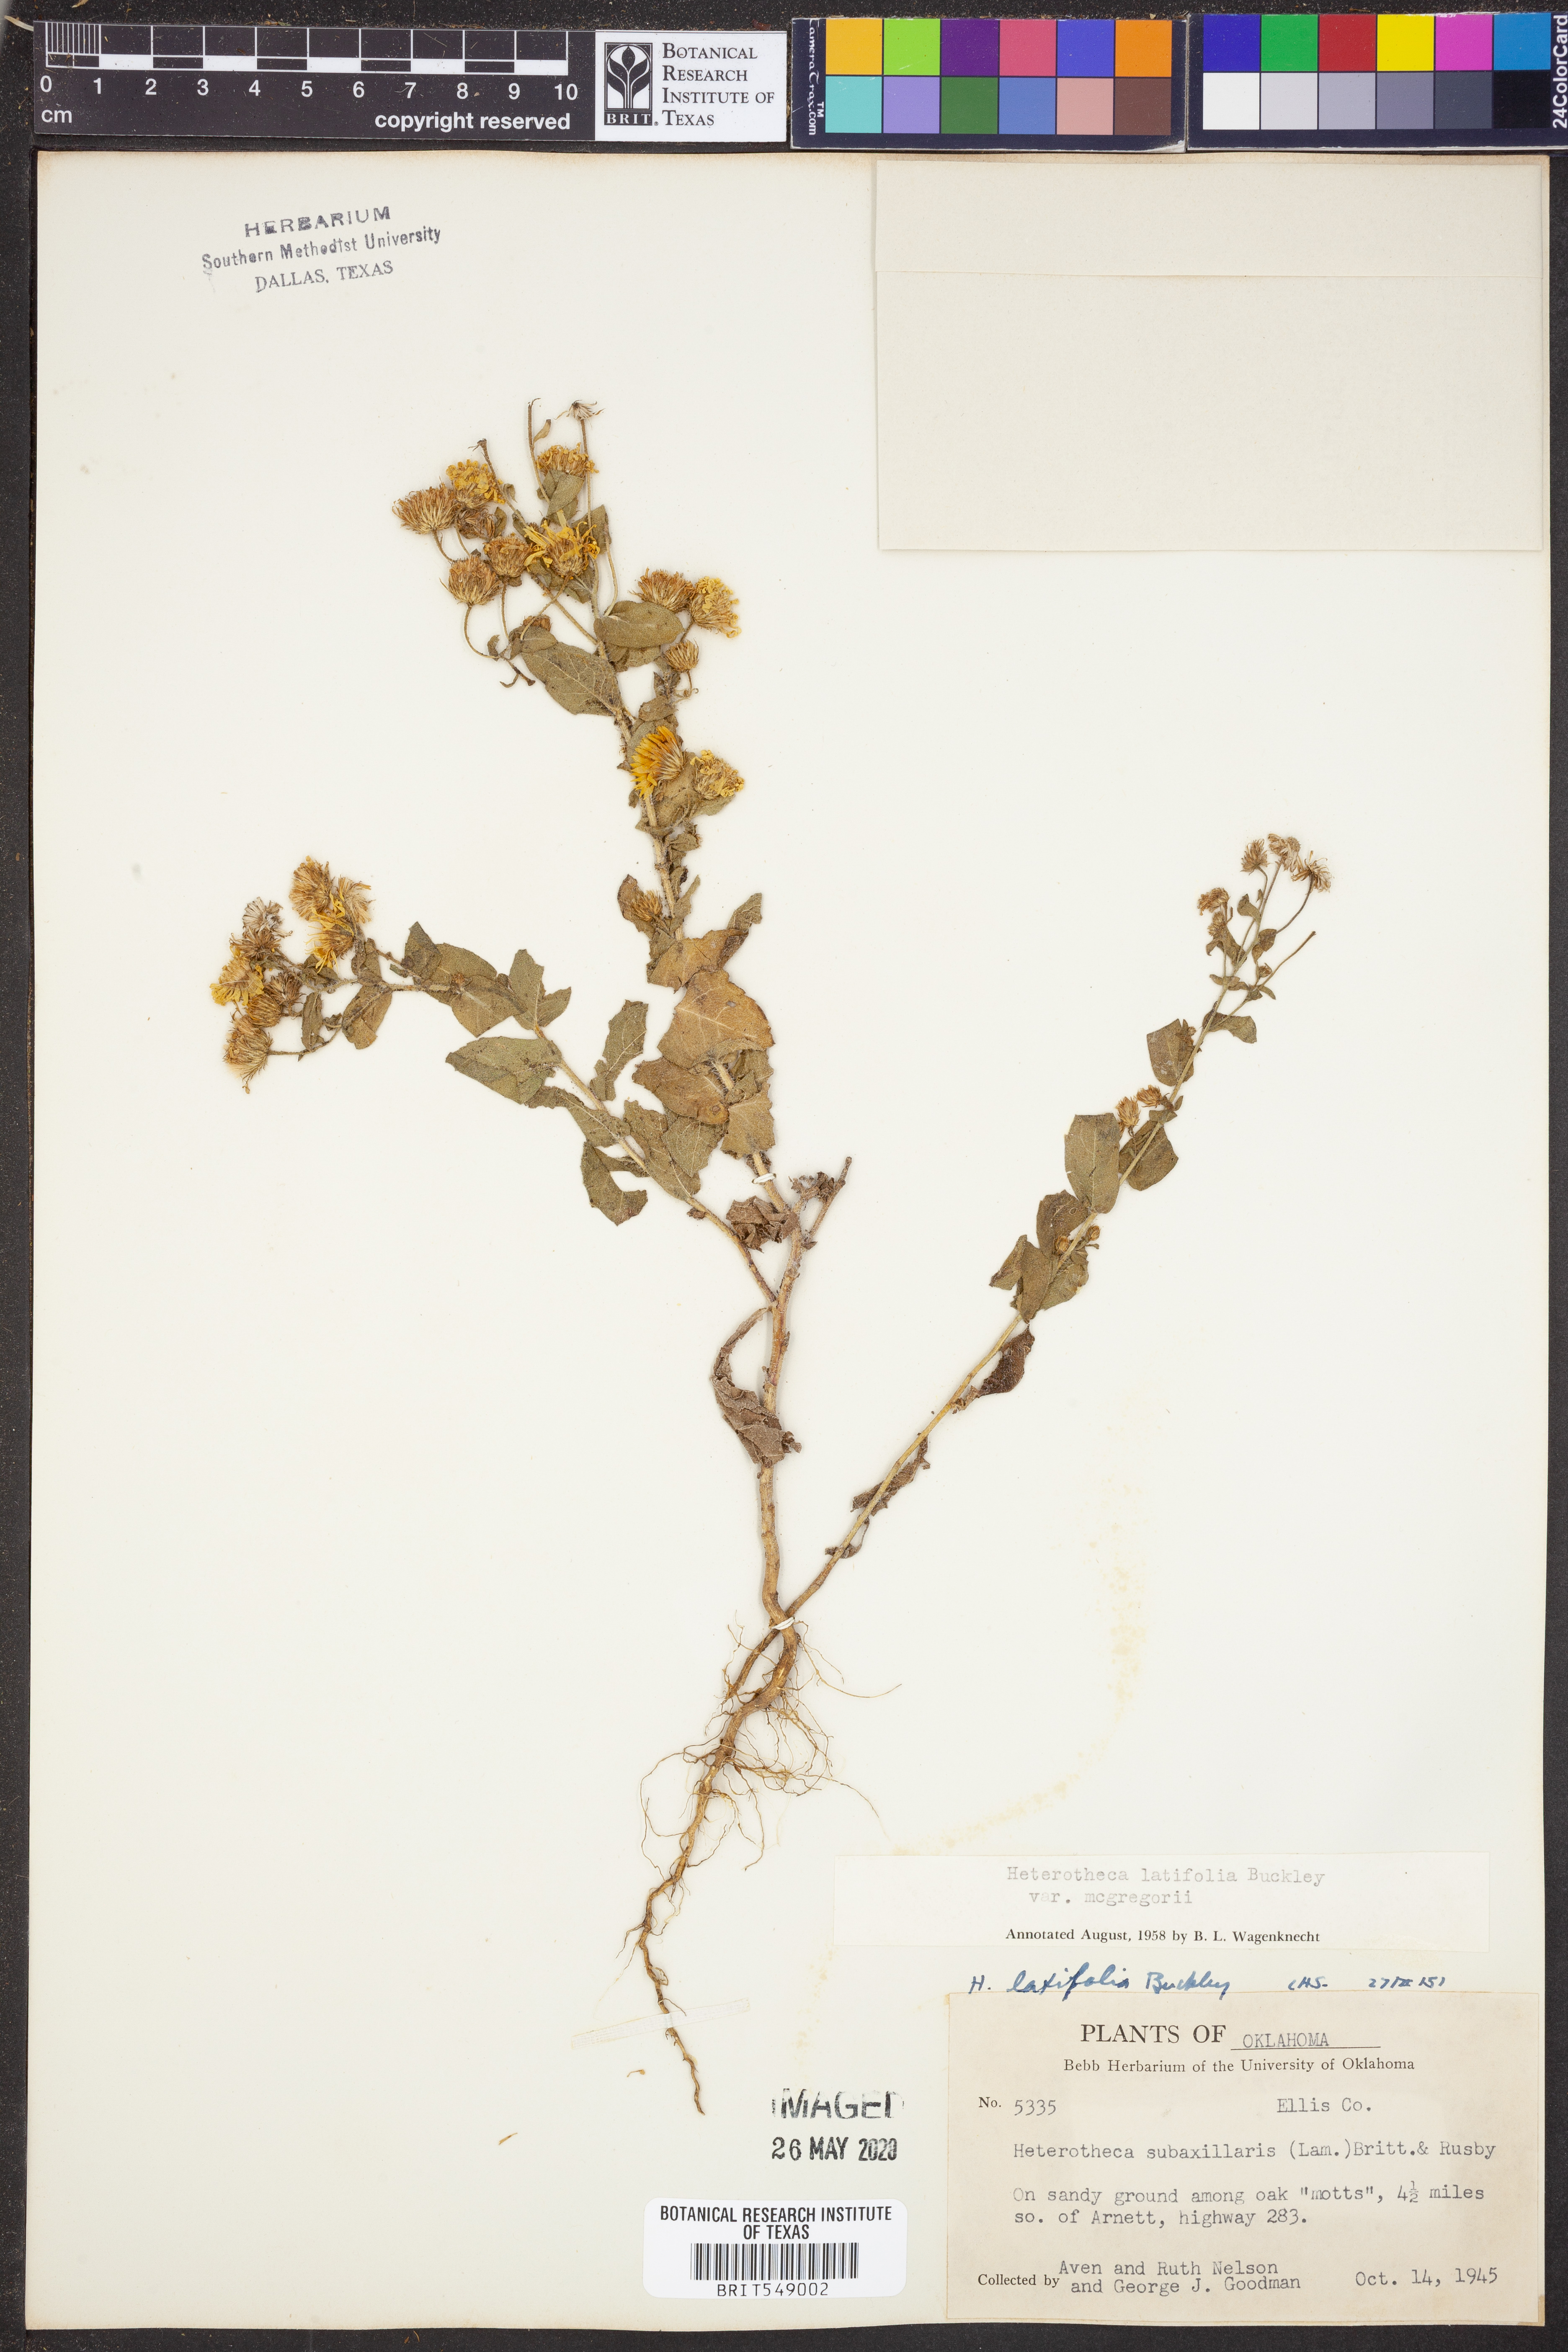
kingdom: Plantae
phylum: Tracheophyta
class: Magnoliopsida
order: Asterales
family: Asteraceae
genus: Heterotheca
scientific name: Heterotheca subaxillaris
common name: Camphorweed
